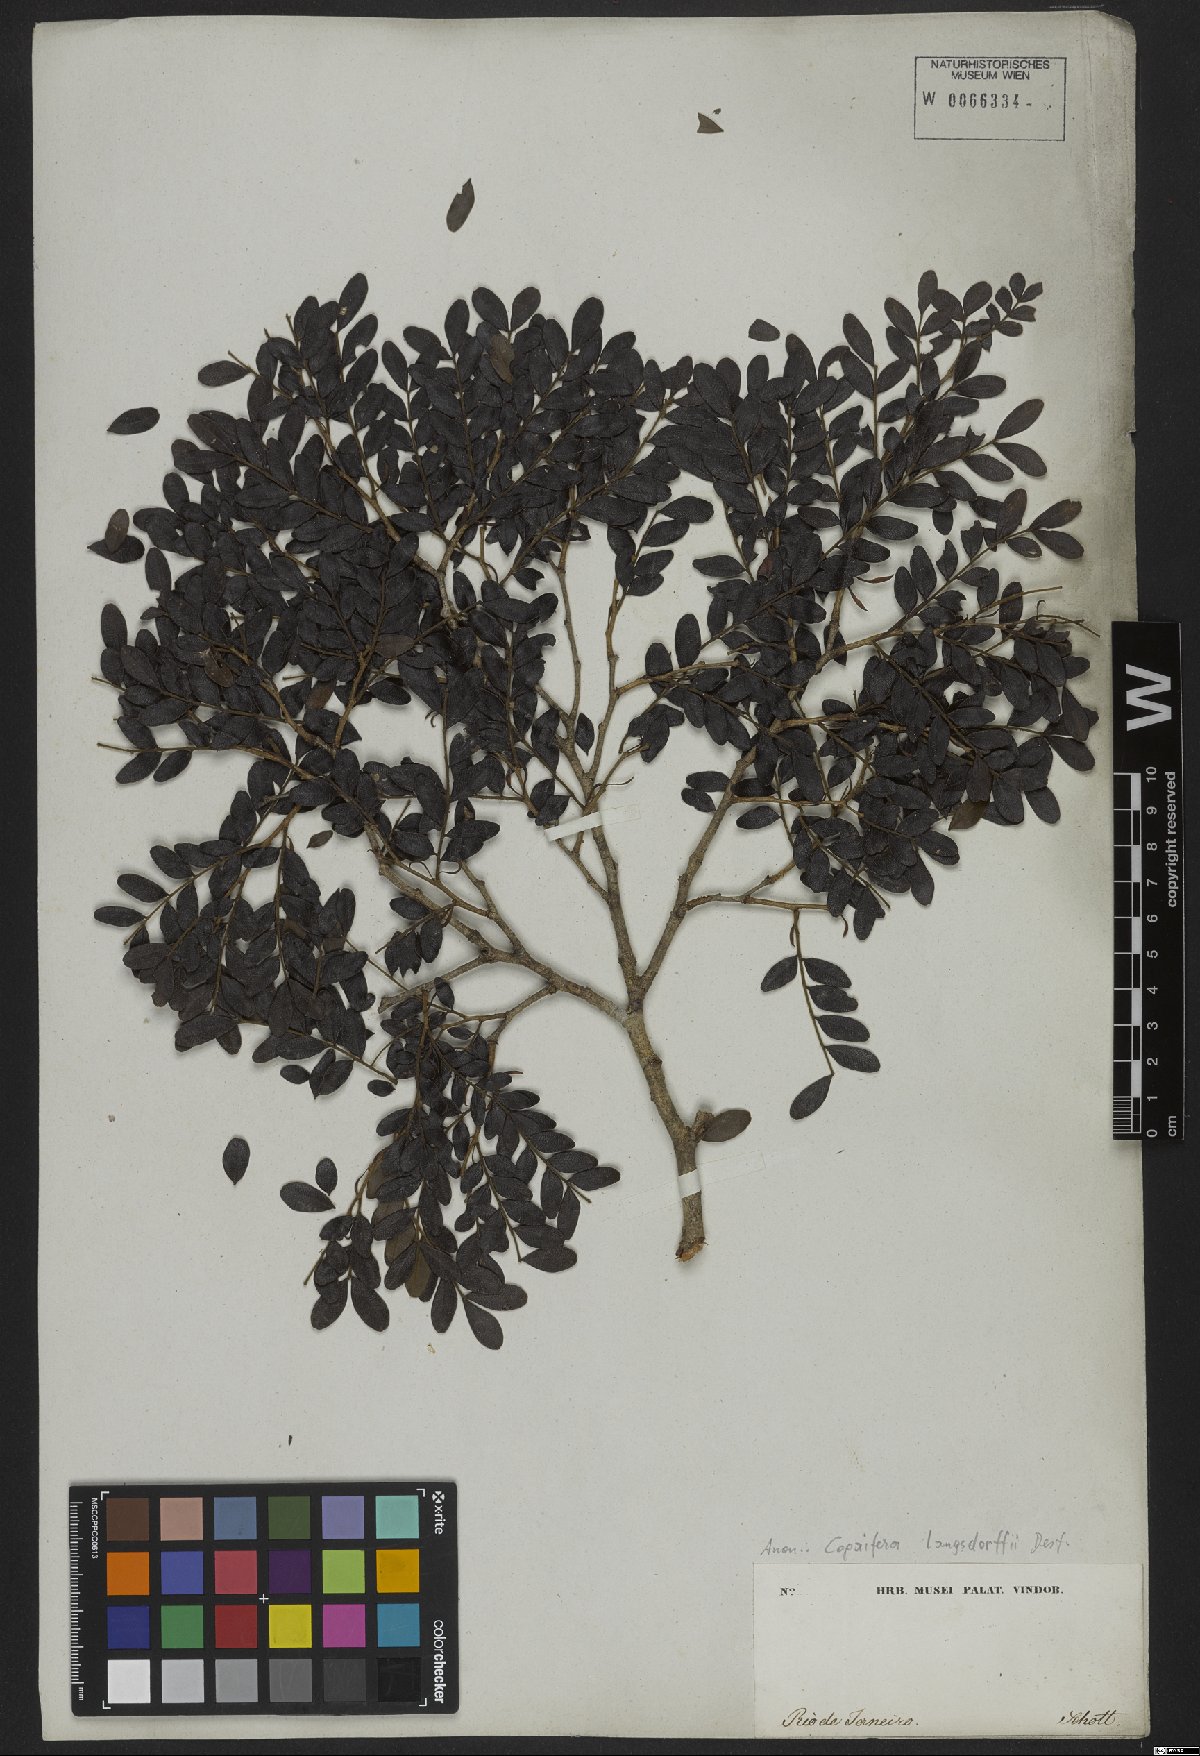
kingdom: Plantae
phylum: Tracheophyta
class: Magnoliopsida
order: Fabales
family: Fabaceae
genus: Copaifera
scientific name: Copaifera langsdorffii
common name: Brazilian diesel tree
